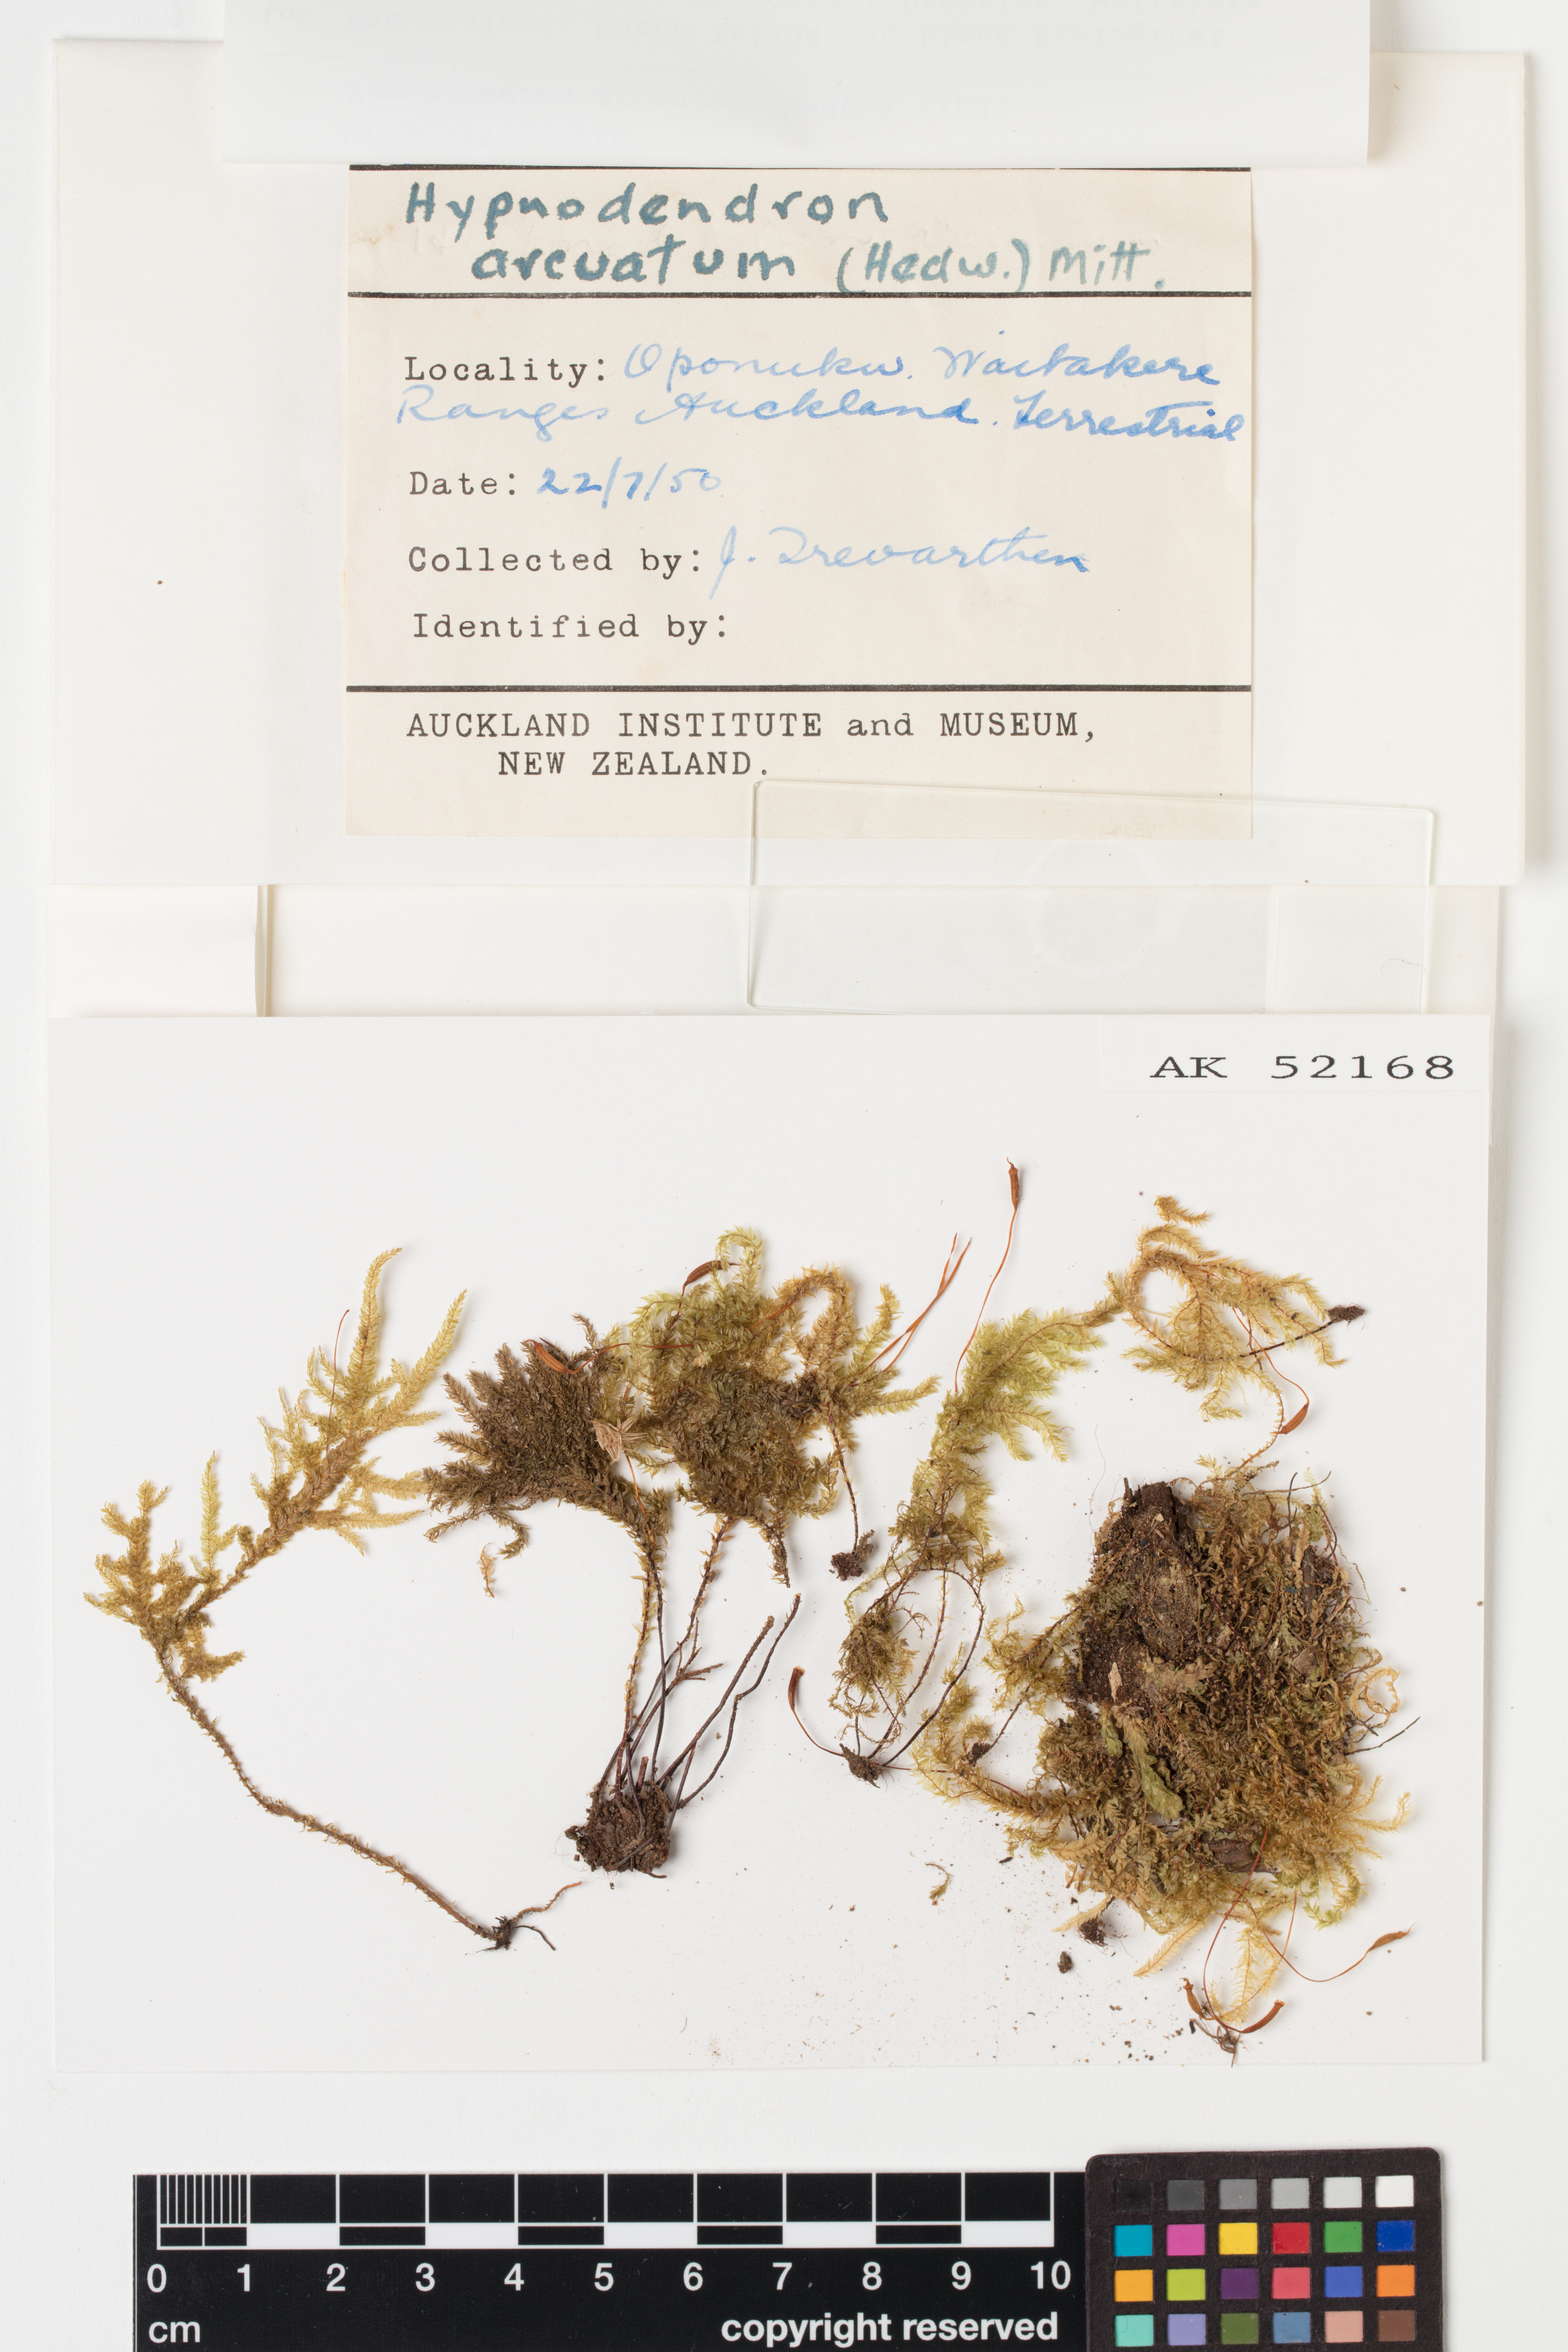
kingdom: Plantae
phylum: Bryophyta
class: Bryopsida
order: Hypnodendrales
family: Spiridentaceae
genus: Hypnodendron
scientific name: Hypnodendron arcuatum
